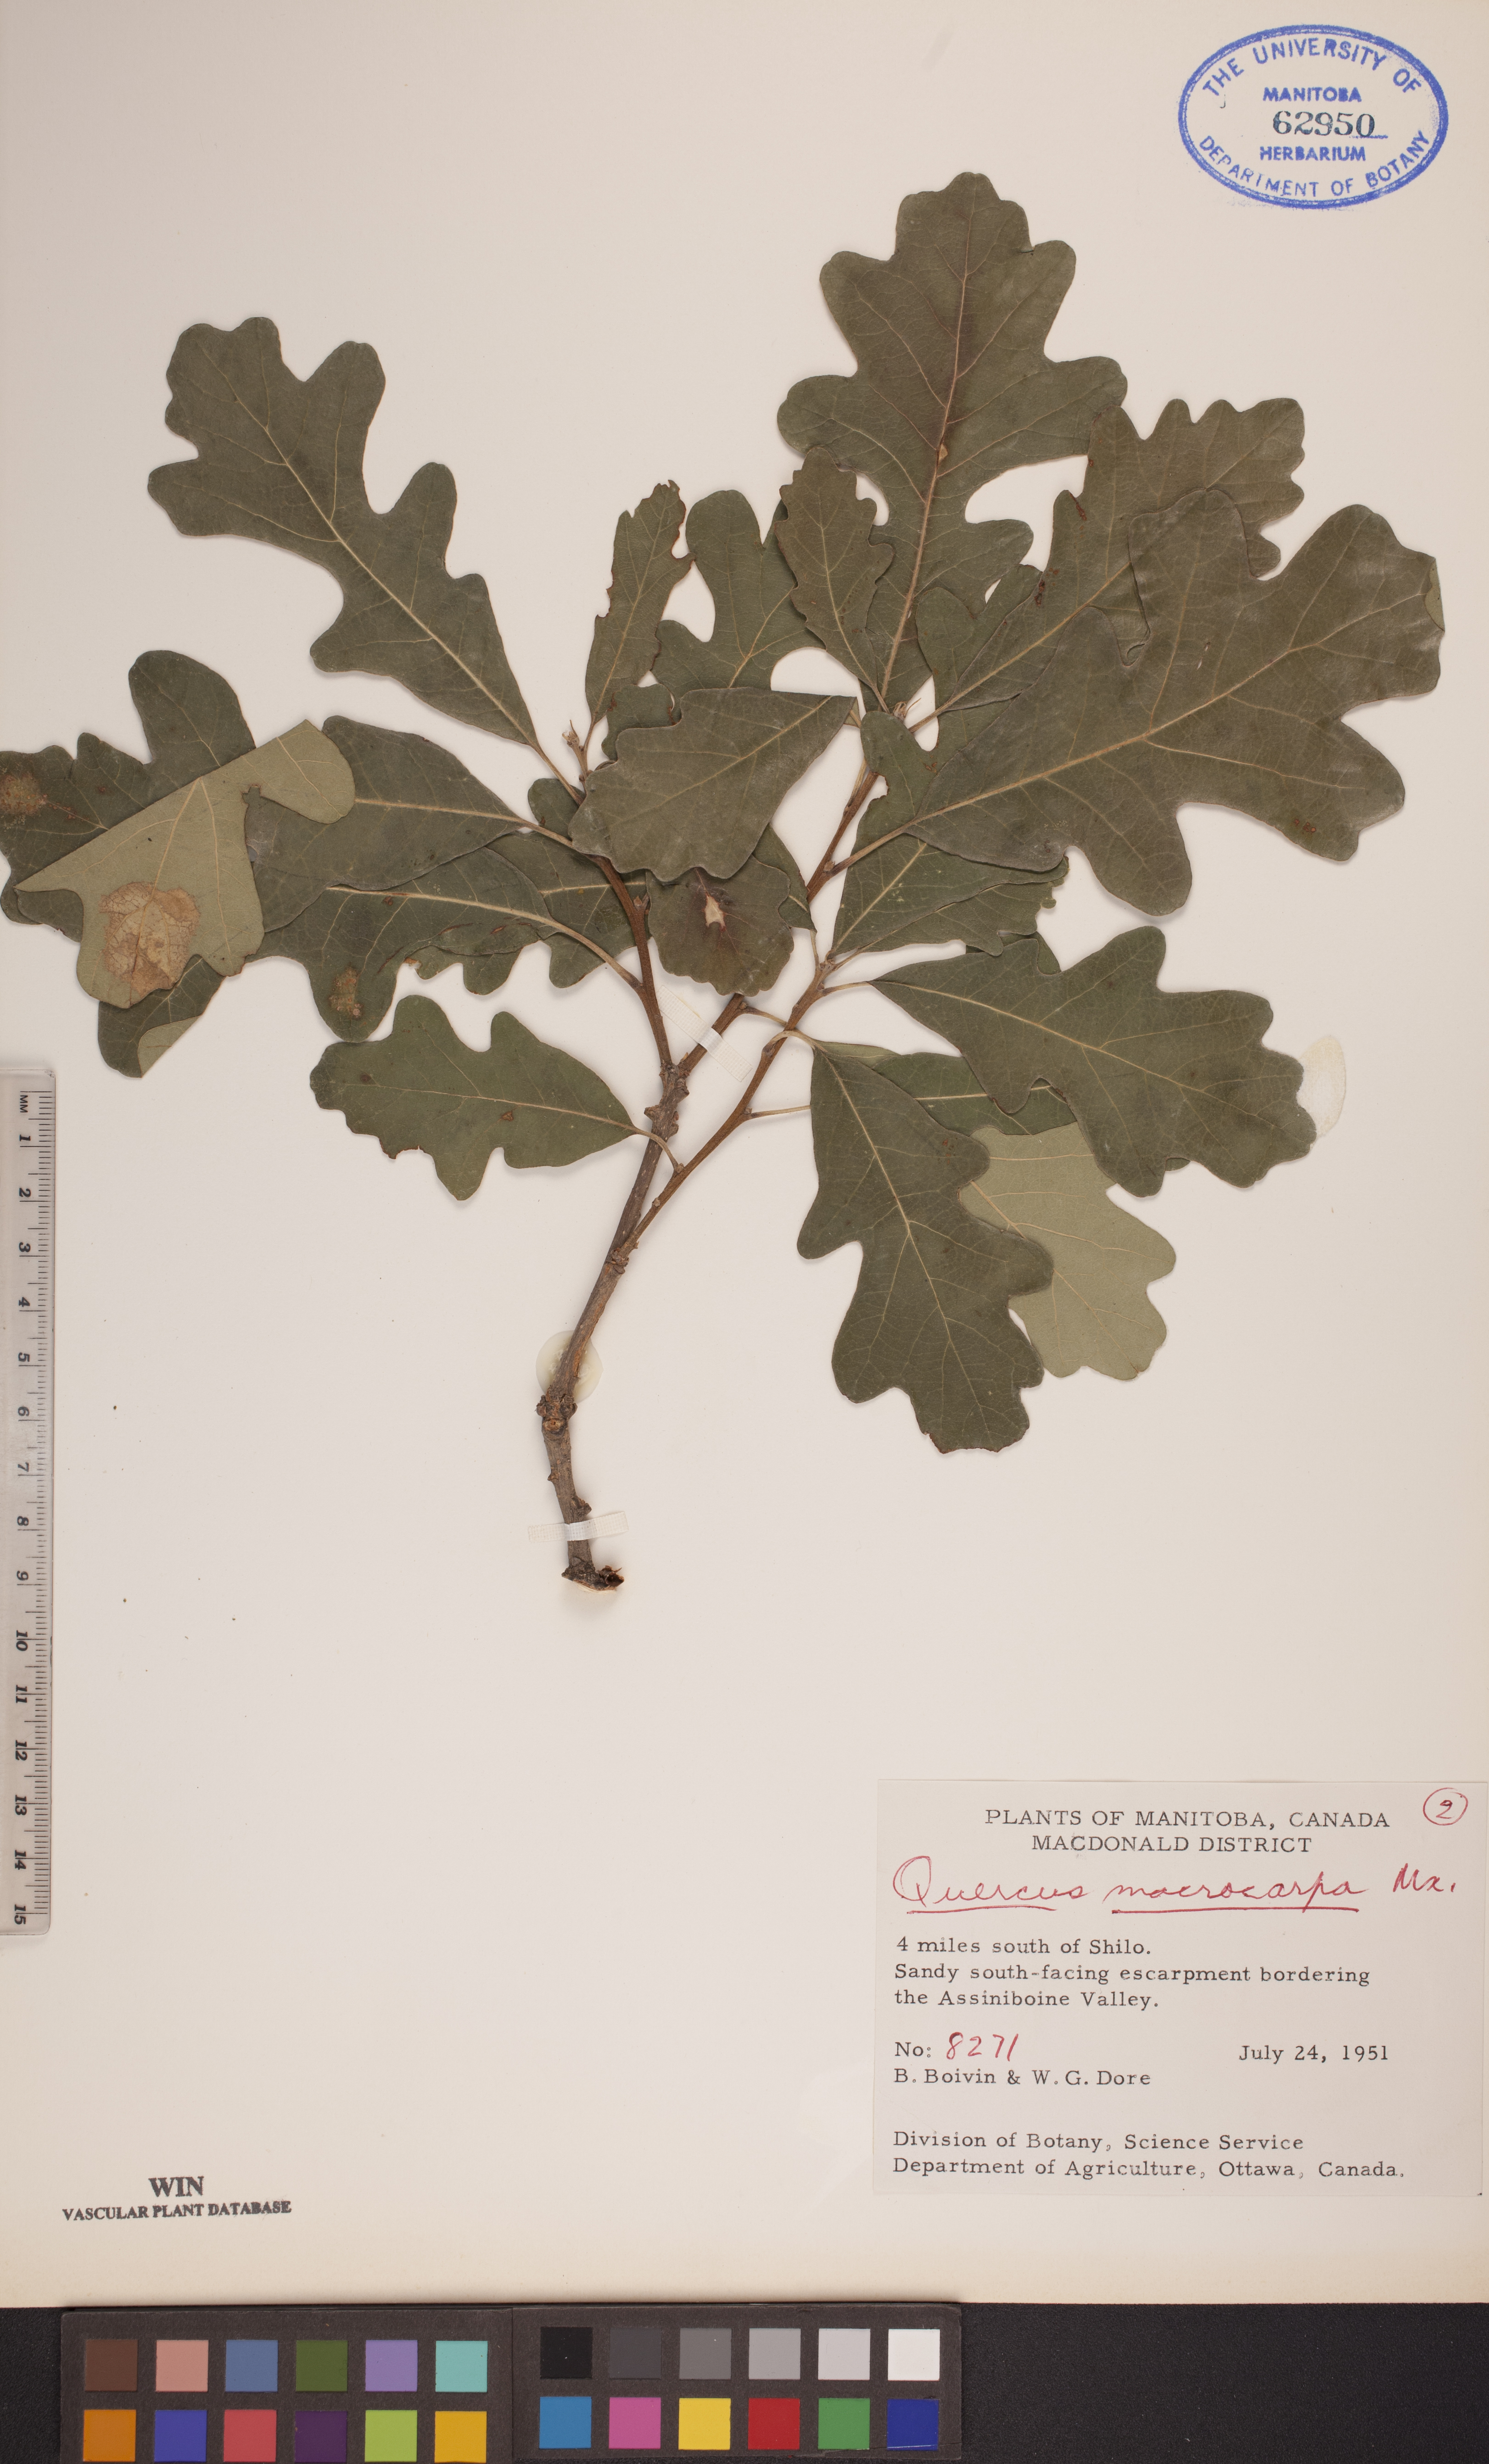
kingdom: Plantae
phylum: Tracheophyta
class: Magnoliopsida
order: Fagales
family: Fagaceae
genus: Quercus
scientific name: Quercus macrocarpa
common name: Bur oak
